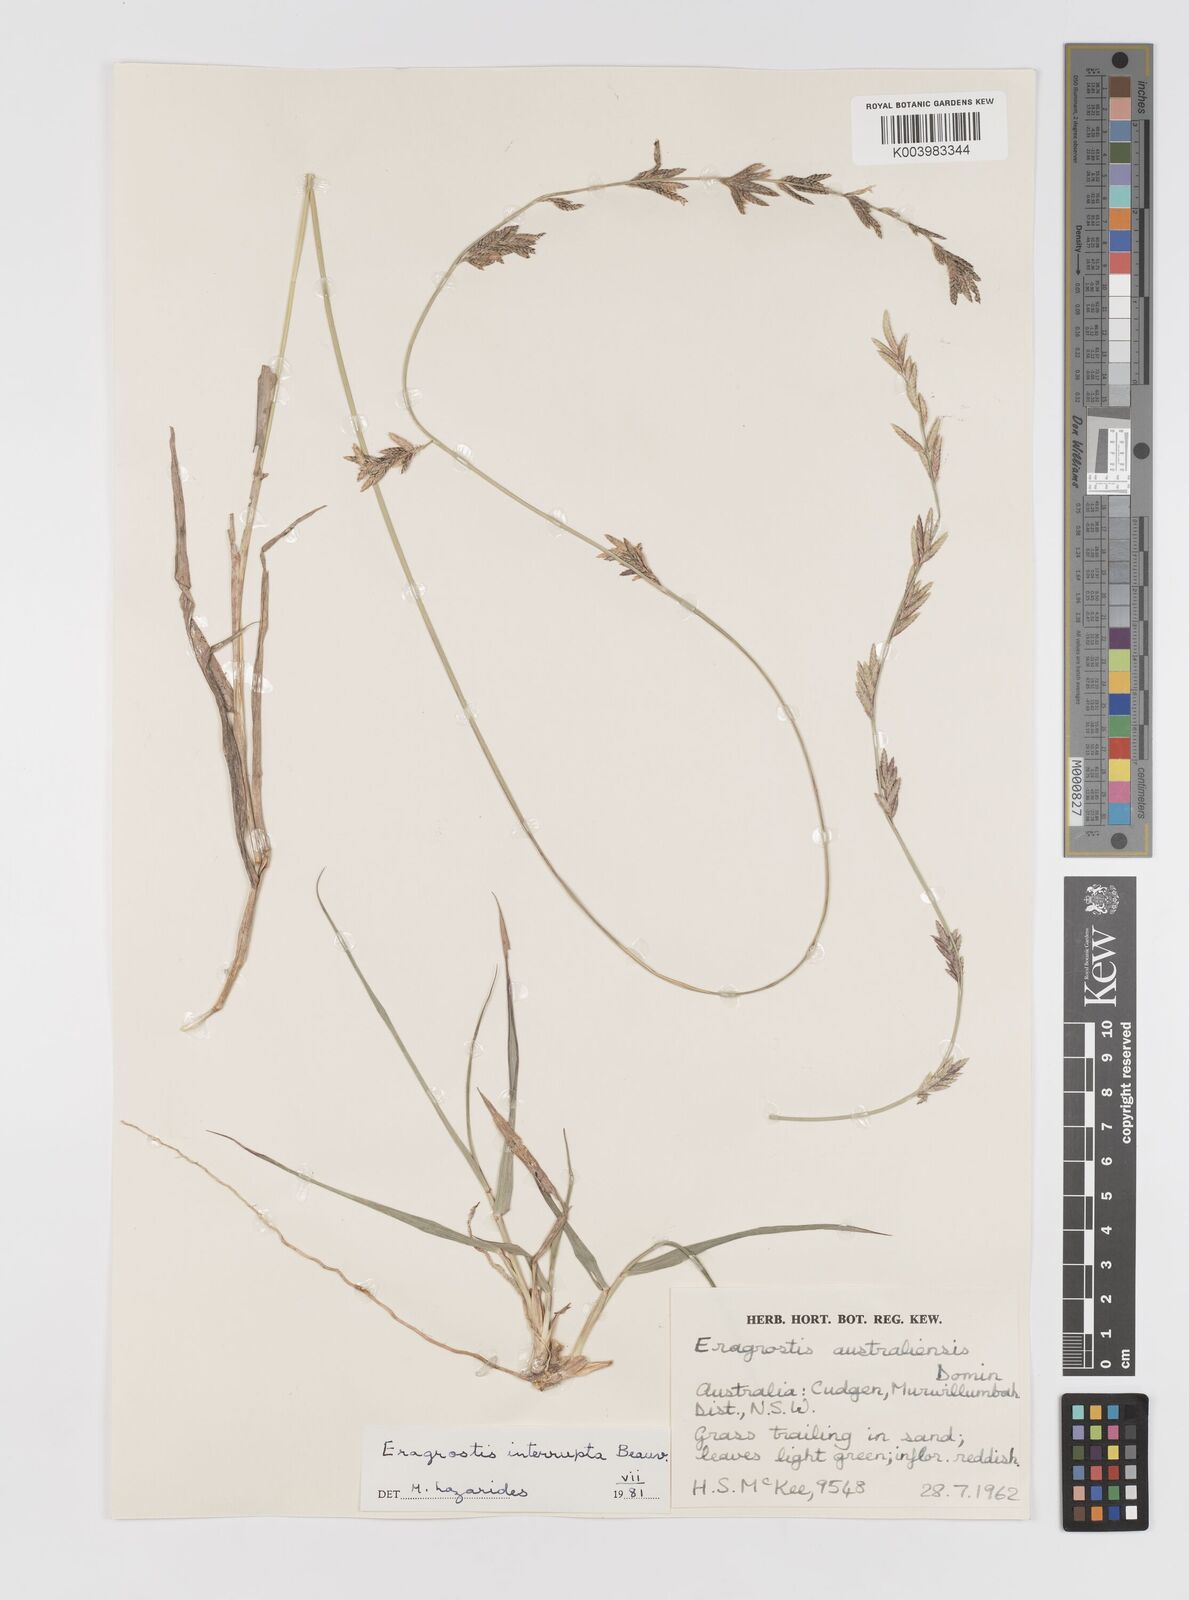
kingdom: Plantae
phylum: Tracheophyta
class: Liliopsida
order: Poales
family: Poaceae
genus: Eragrostis
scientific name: Eragrostis interrupta
